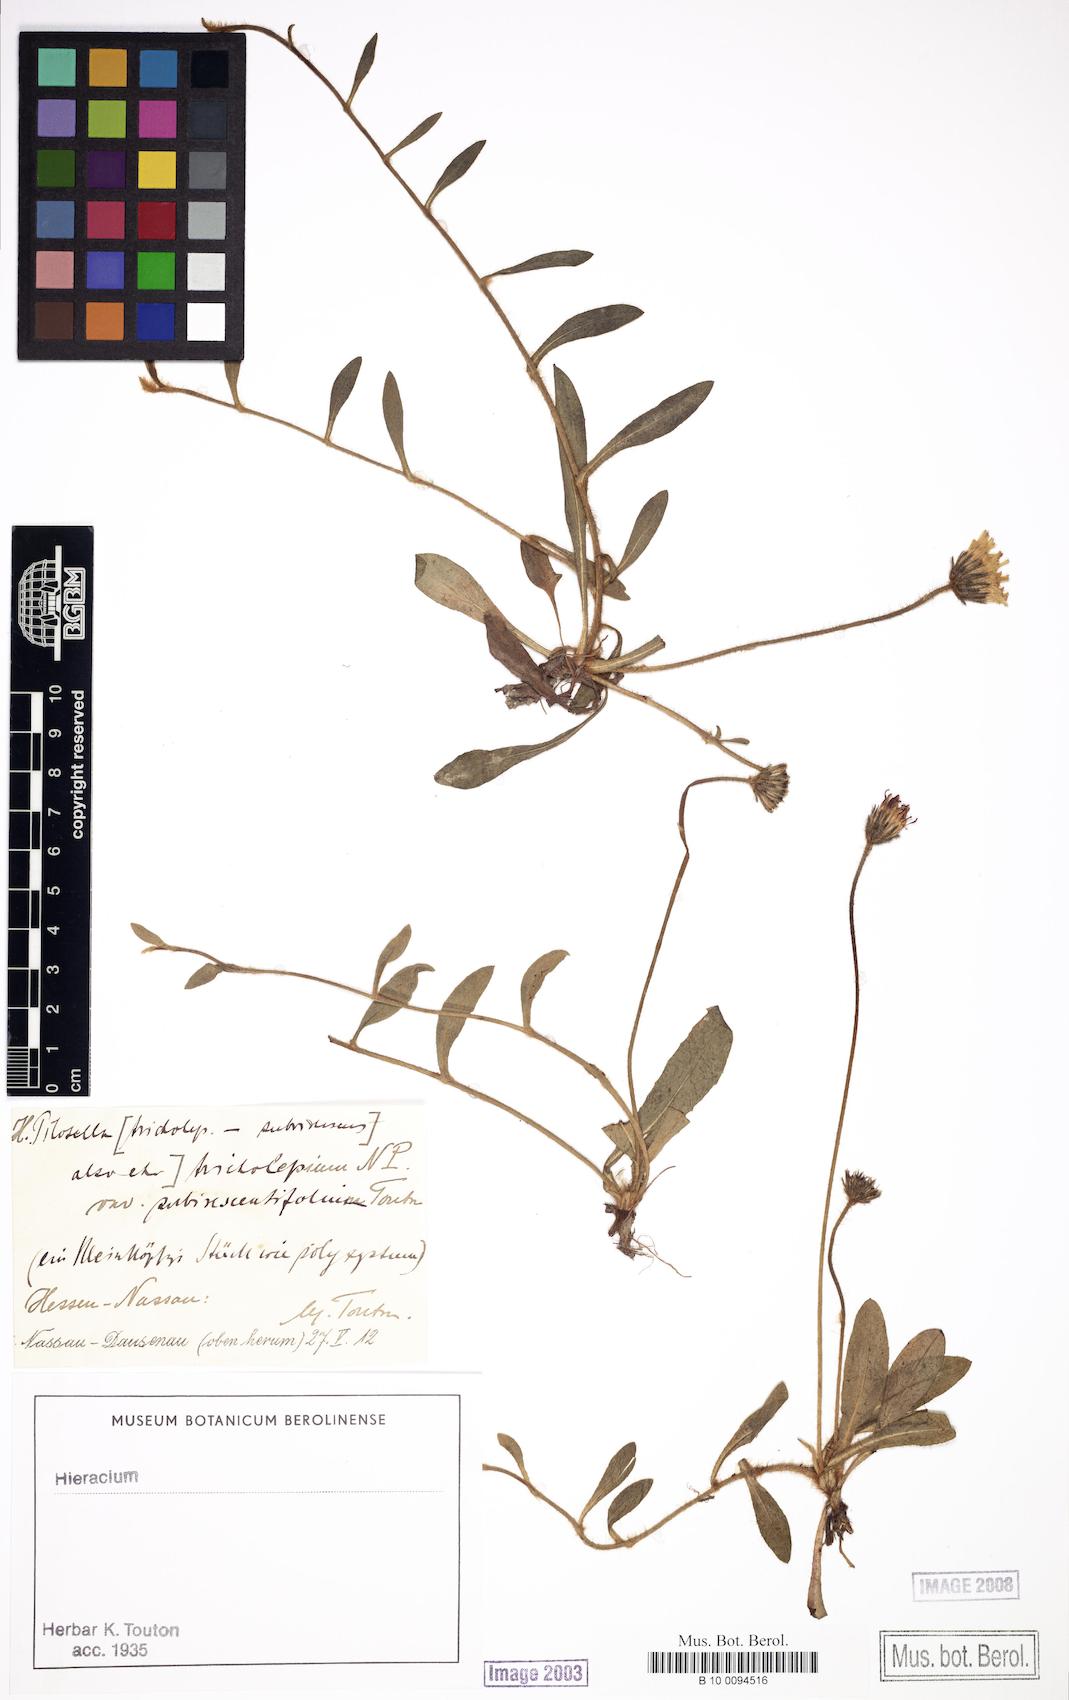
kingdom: Plantae
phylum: Tracheophyta
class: Magnoliopsida
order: Asterales
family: Asteraceae
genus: Pilosella
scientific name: Pilosella officinarum
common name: Mouse-ear hawkweed
